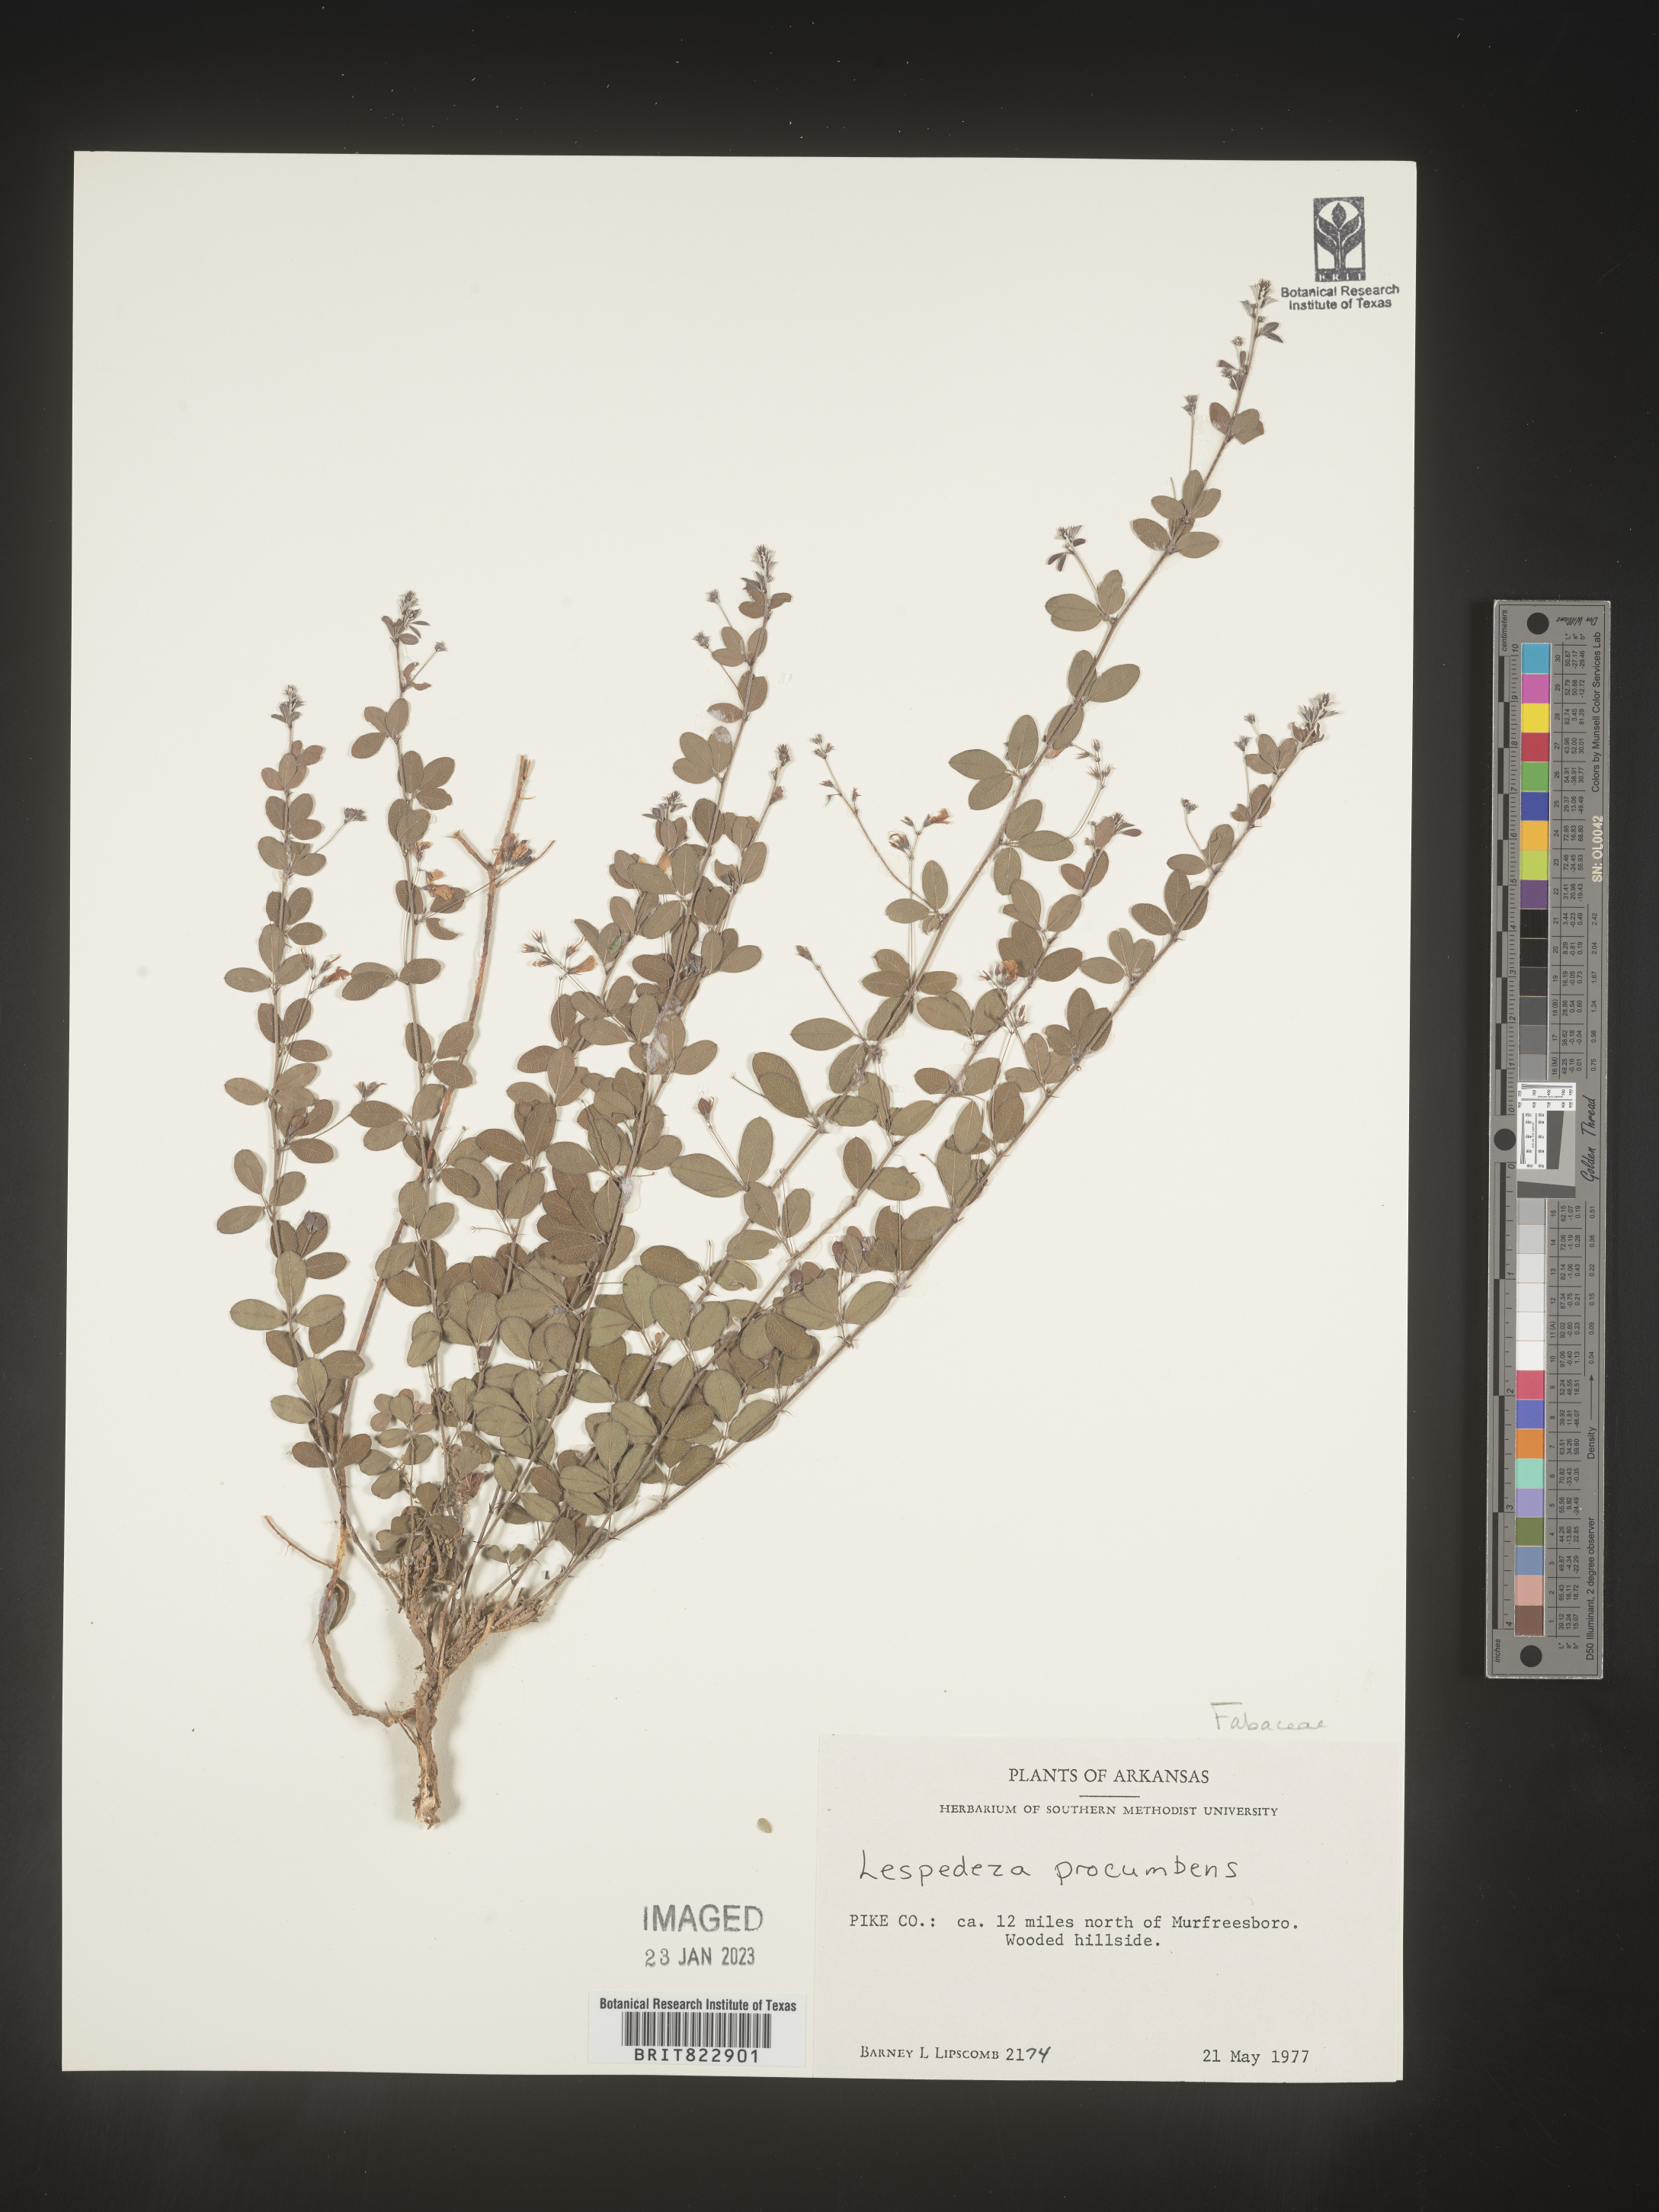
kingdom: Plantae
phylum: Tracheophyta
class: Magnoliopsida
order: Fabales
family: Fabaceae
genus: Lespedeza
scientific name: Lespedeza procumbens
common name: Downy trailing bush-clover
